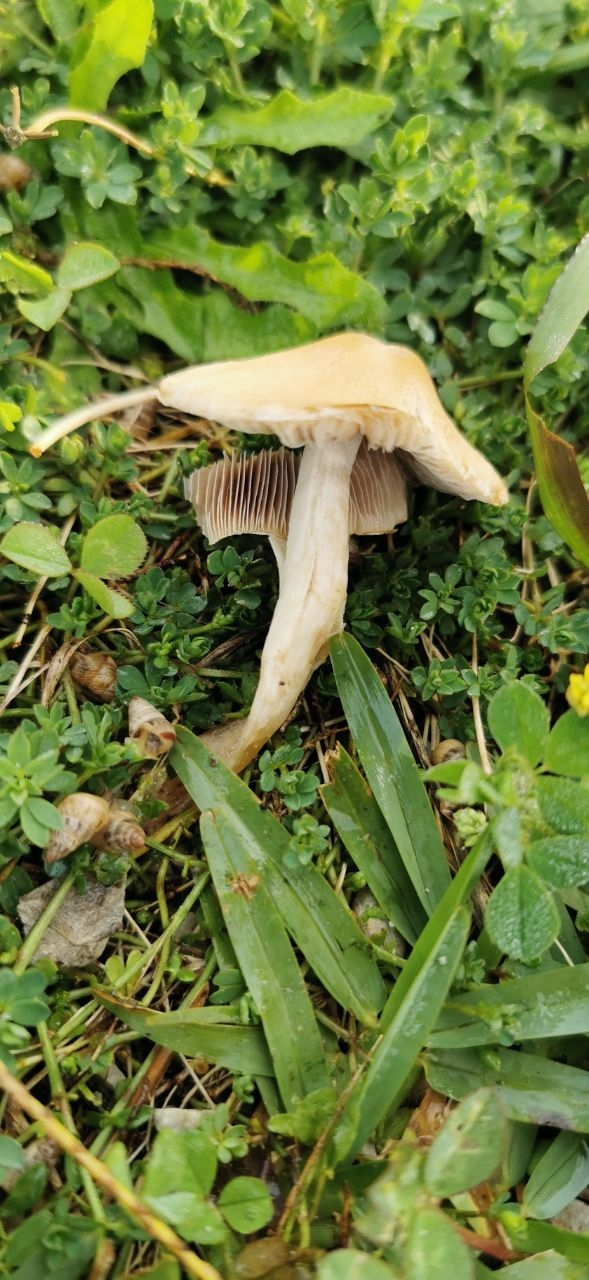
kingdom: Fungi
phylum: Basidiomycota
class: Agaricomycetes
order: Agaricales
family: Strophariaceae
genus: Agrocybe
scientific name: Agrocybe
